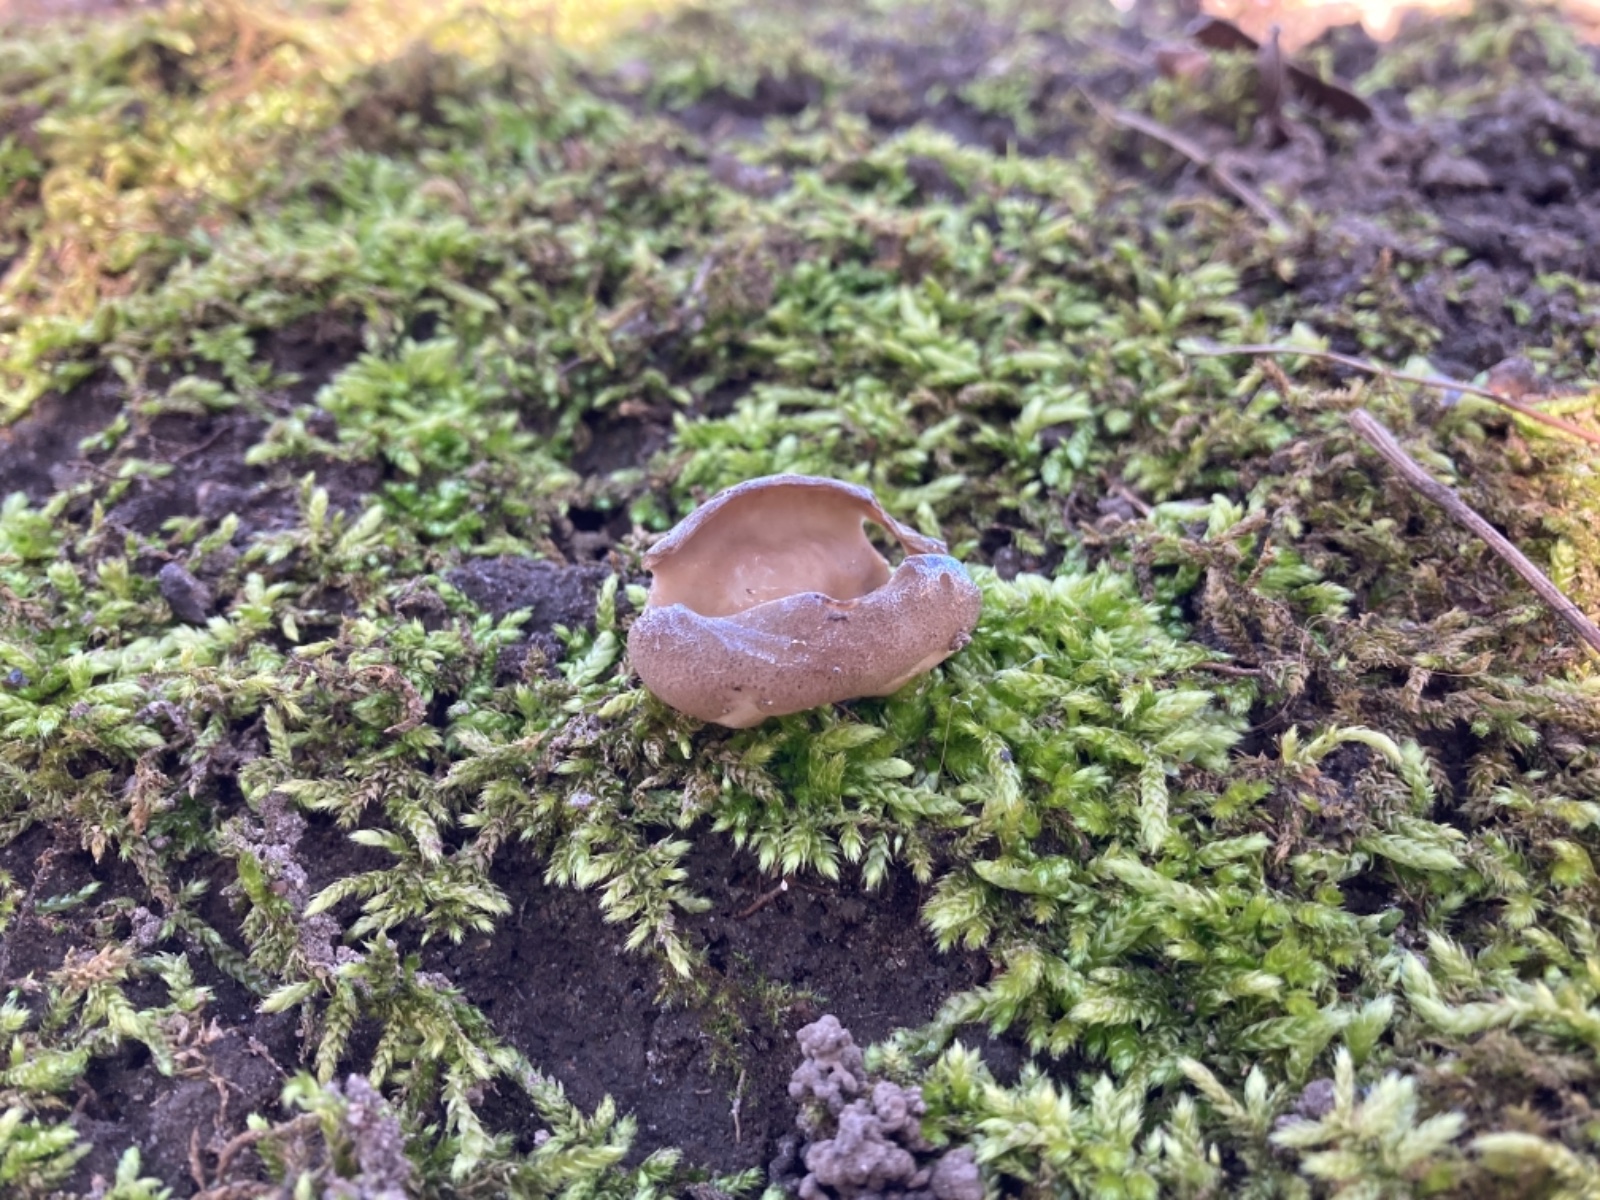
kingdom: Fungi
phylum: Ascomycota
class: Pezizomycetes
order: Pezizales
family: Morchellaceae
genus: Disciotis
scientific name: Disciotis venosa
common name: klor-bægermorkel
